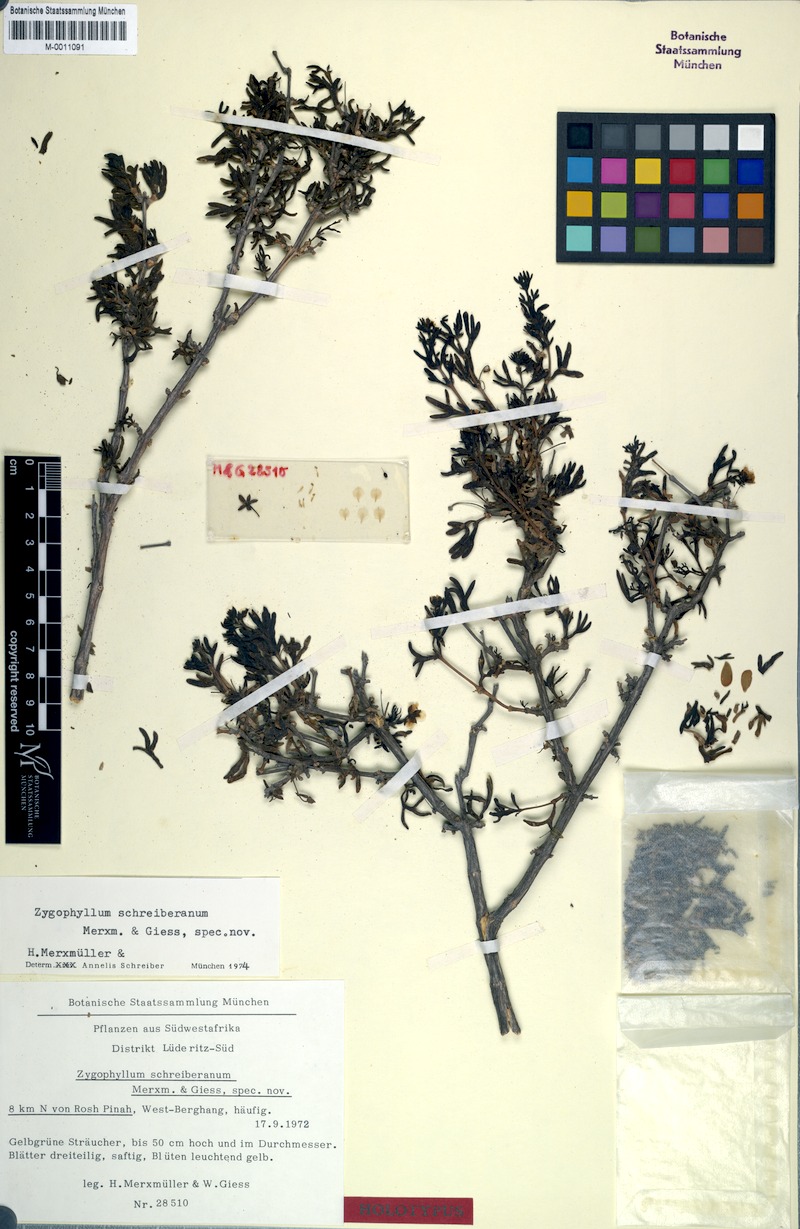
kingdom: Plantae
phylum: Tracheophyta
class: Magnoliopsida
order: Zygophyllales
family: Zygophyllaceae
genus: Roepera
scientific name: Roepera schreiberiana
